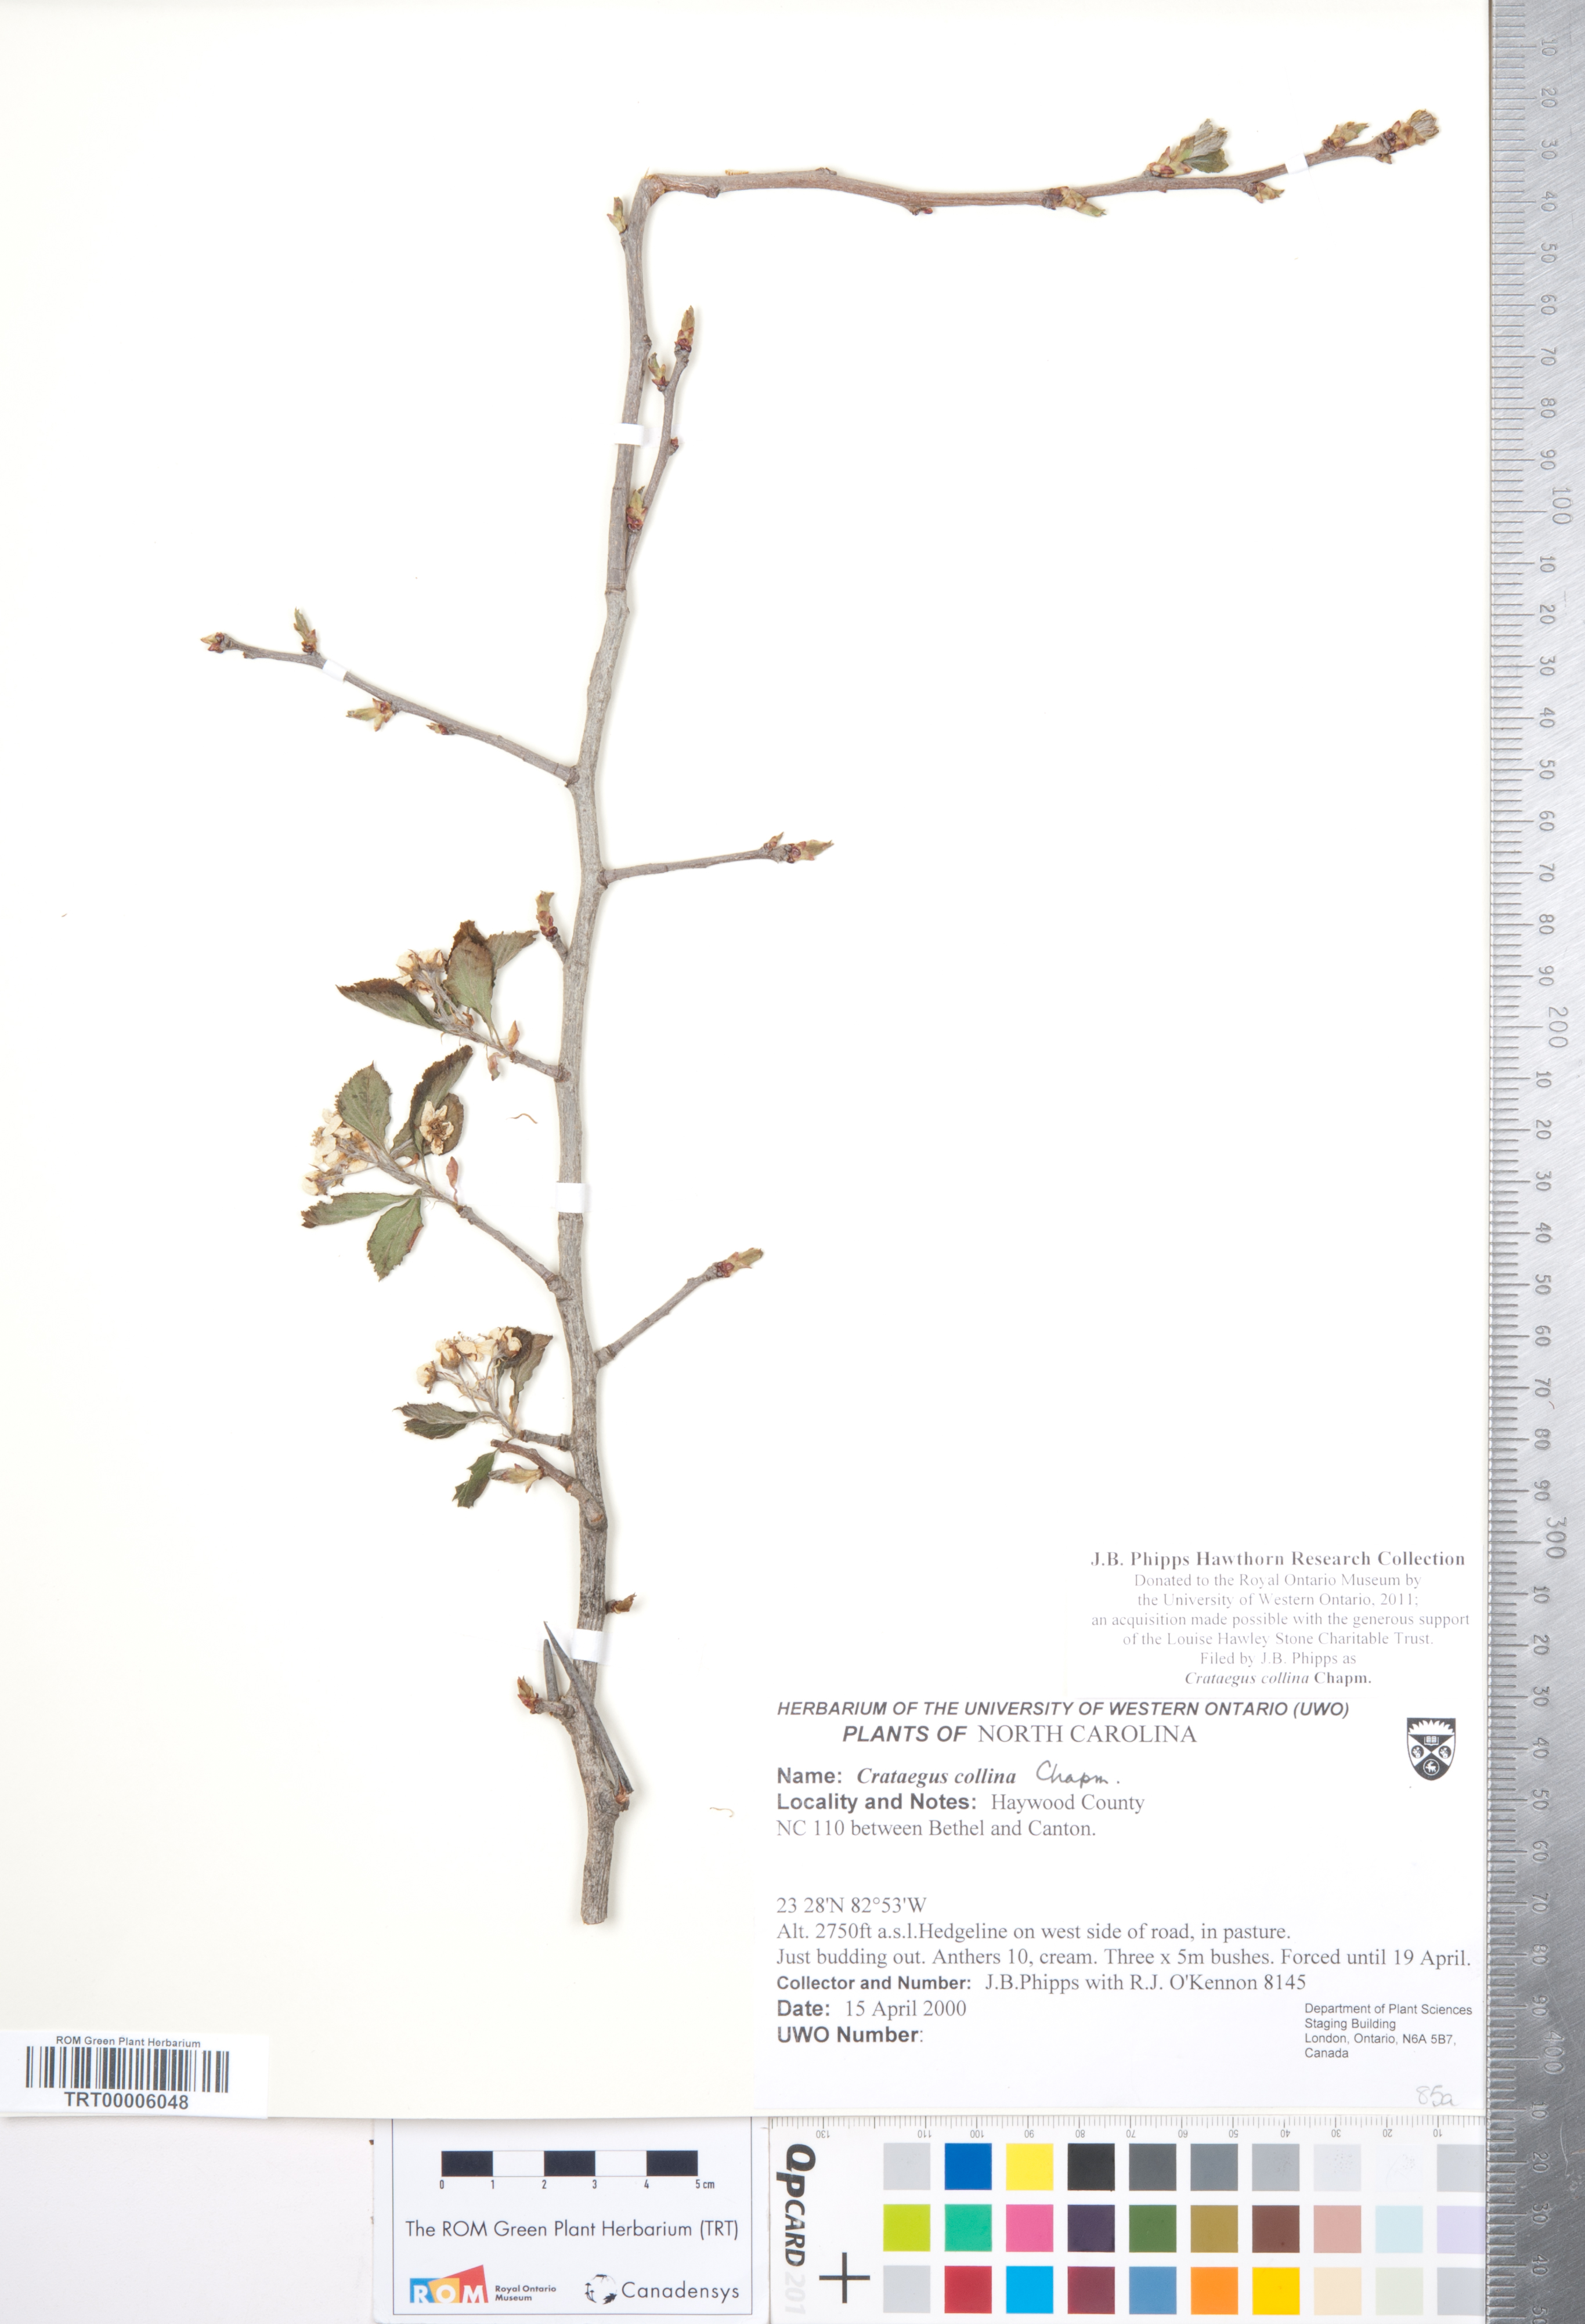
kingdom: Plantae
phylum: Tracheophyta
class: Magnoliopsida
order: Rosales
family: Rosaceae
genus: Crataegus
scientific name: Crataegus collina
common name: Hillside hawthorn
